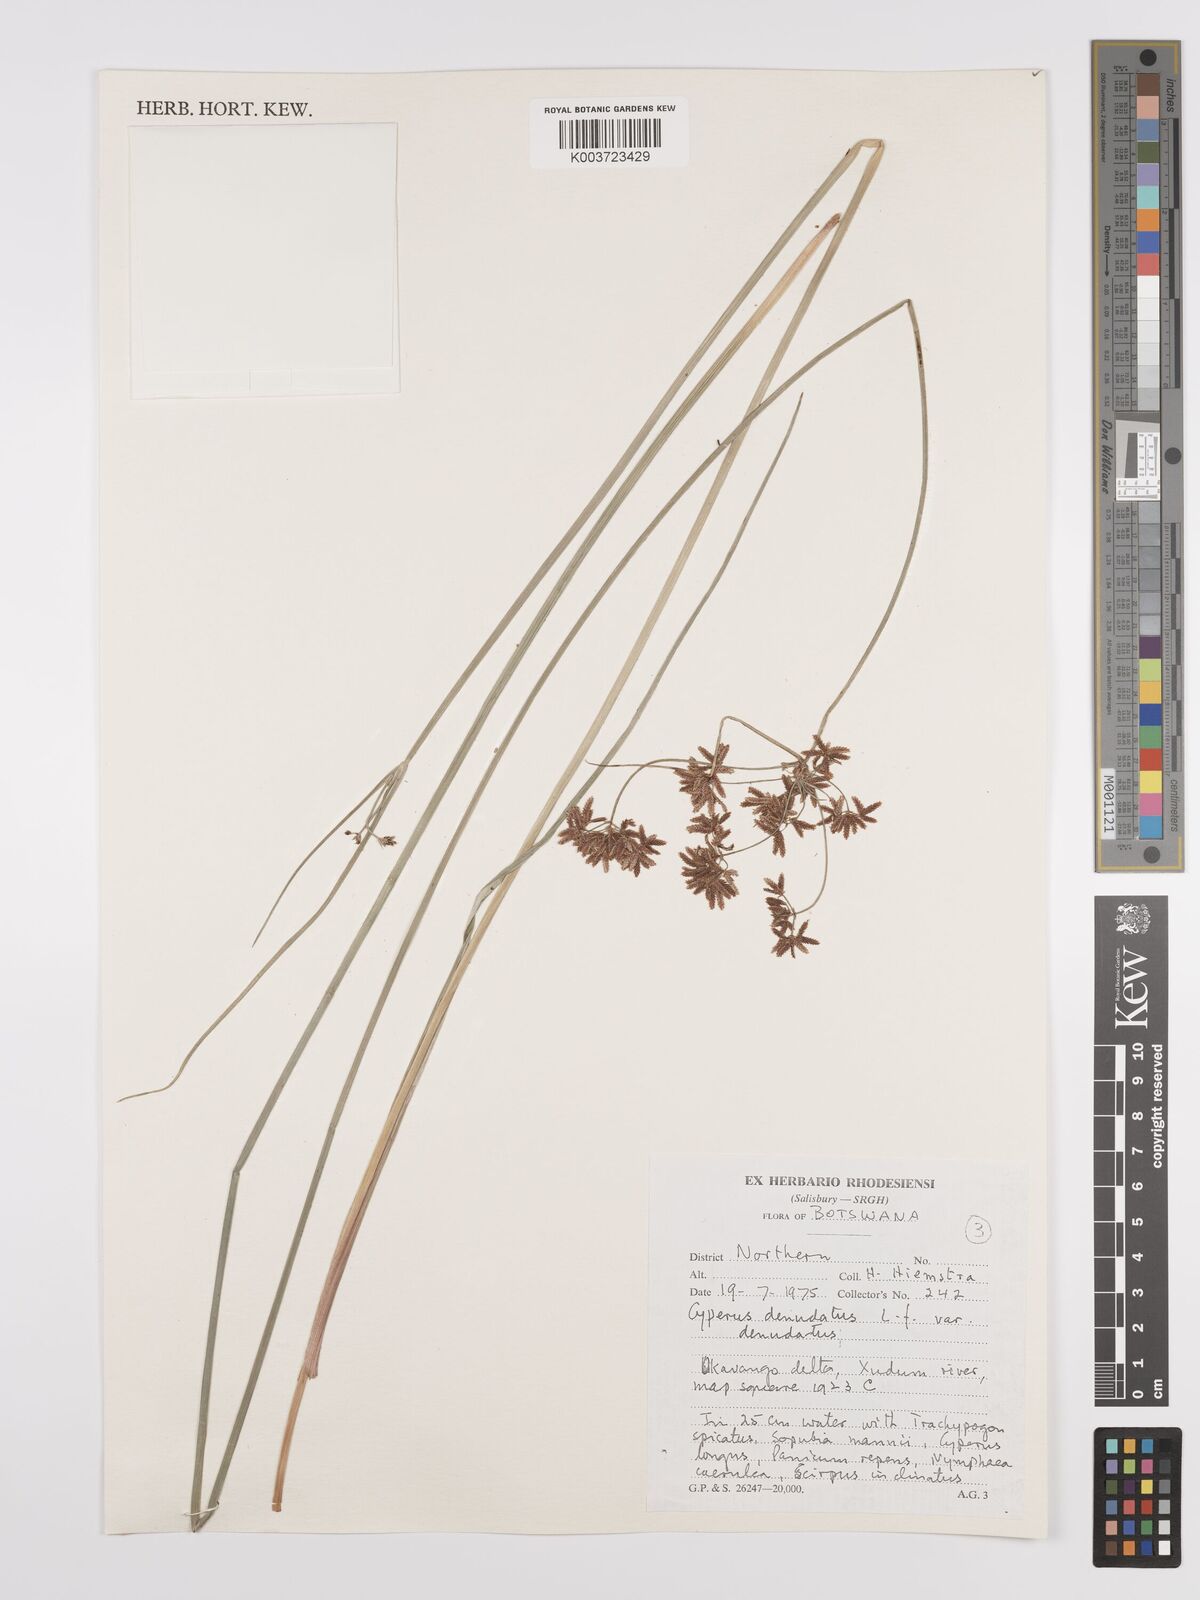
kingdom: Plantae
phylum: Tracheophyta
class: Liliopsida
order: Poales
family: Cyperaceae
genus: Cyperus
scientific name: Cyperus denudatus
